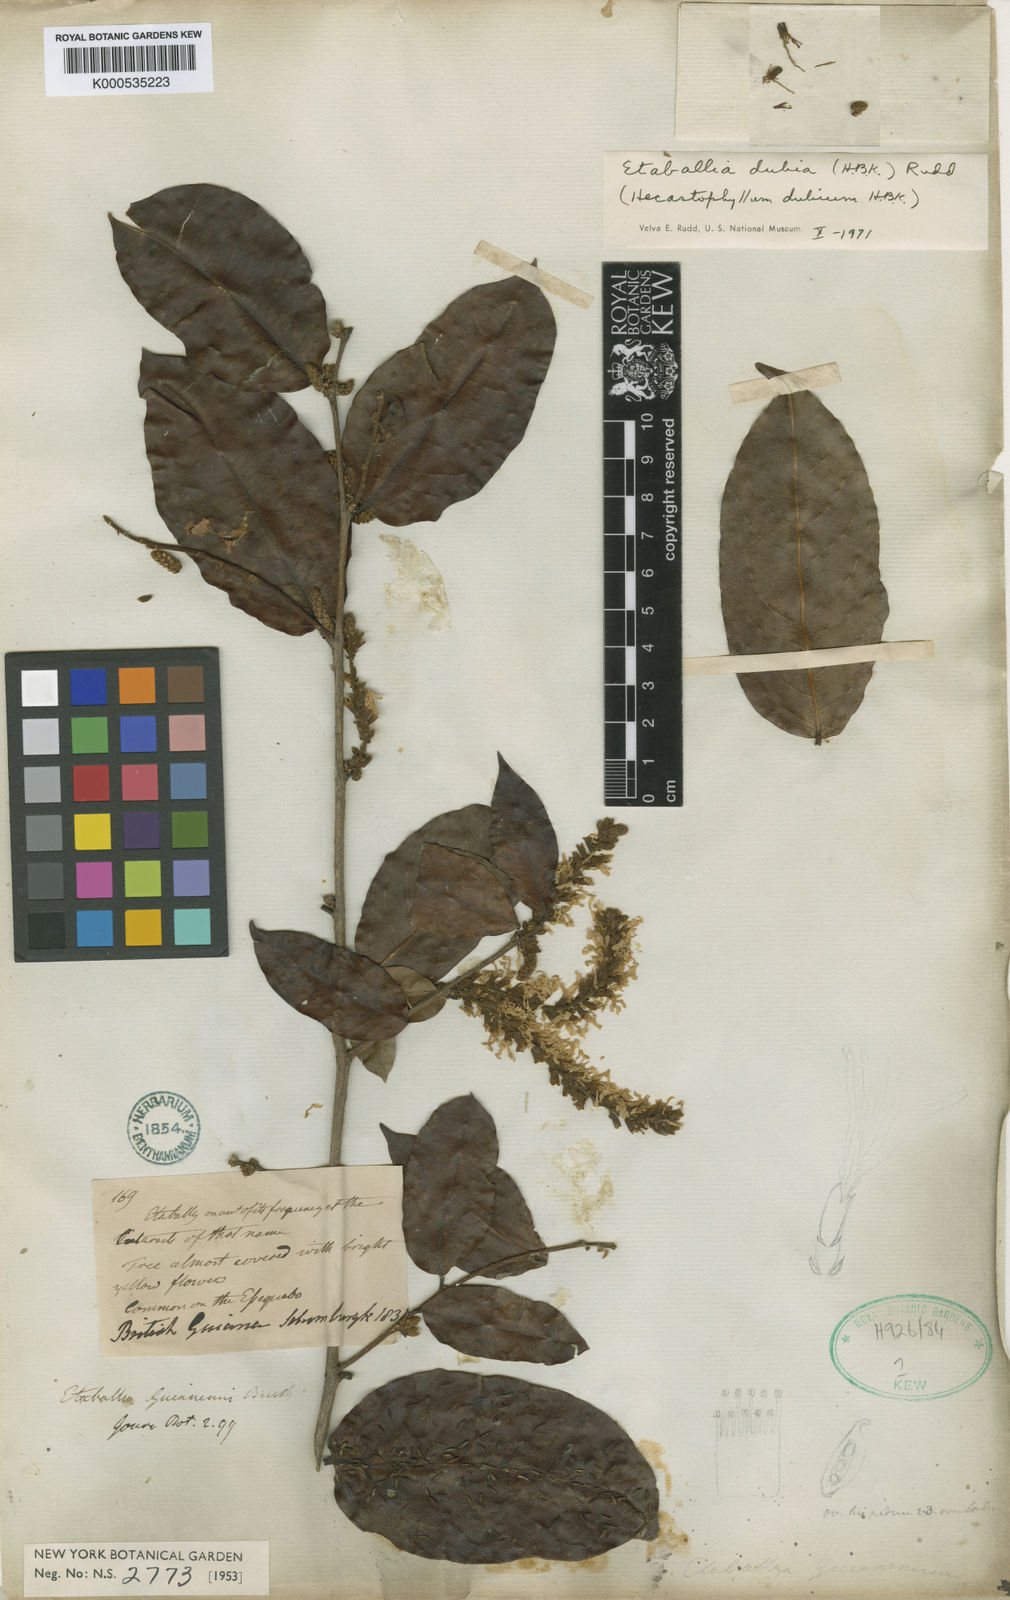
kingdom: Plantae
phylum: Tracheophyta
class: Magnoliopsida
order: Fabales
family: Fabaceae
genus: Pterocarpus
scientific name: Pterocarpus dubius
